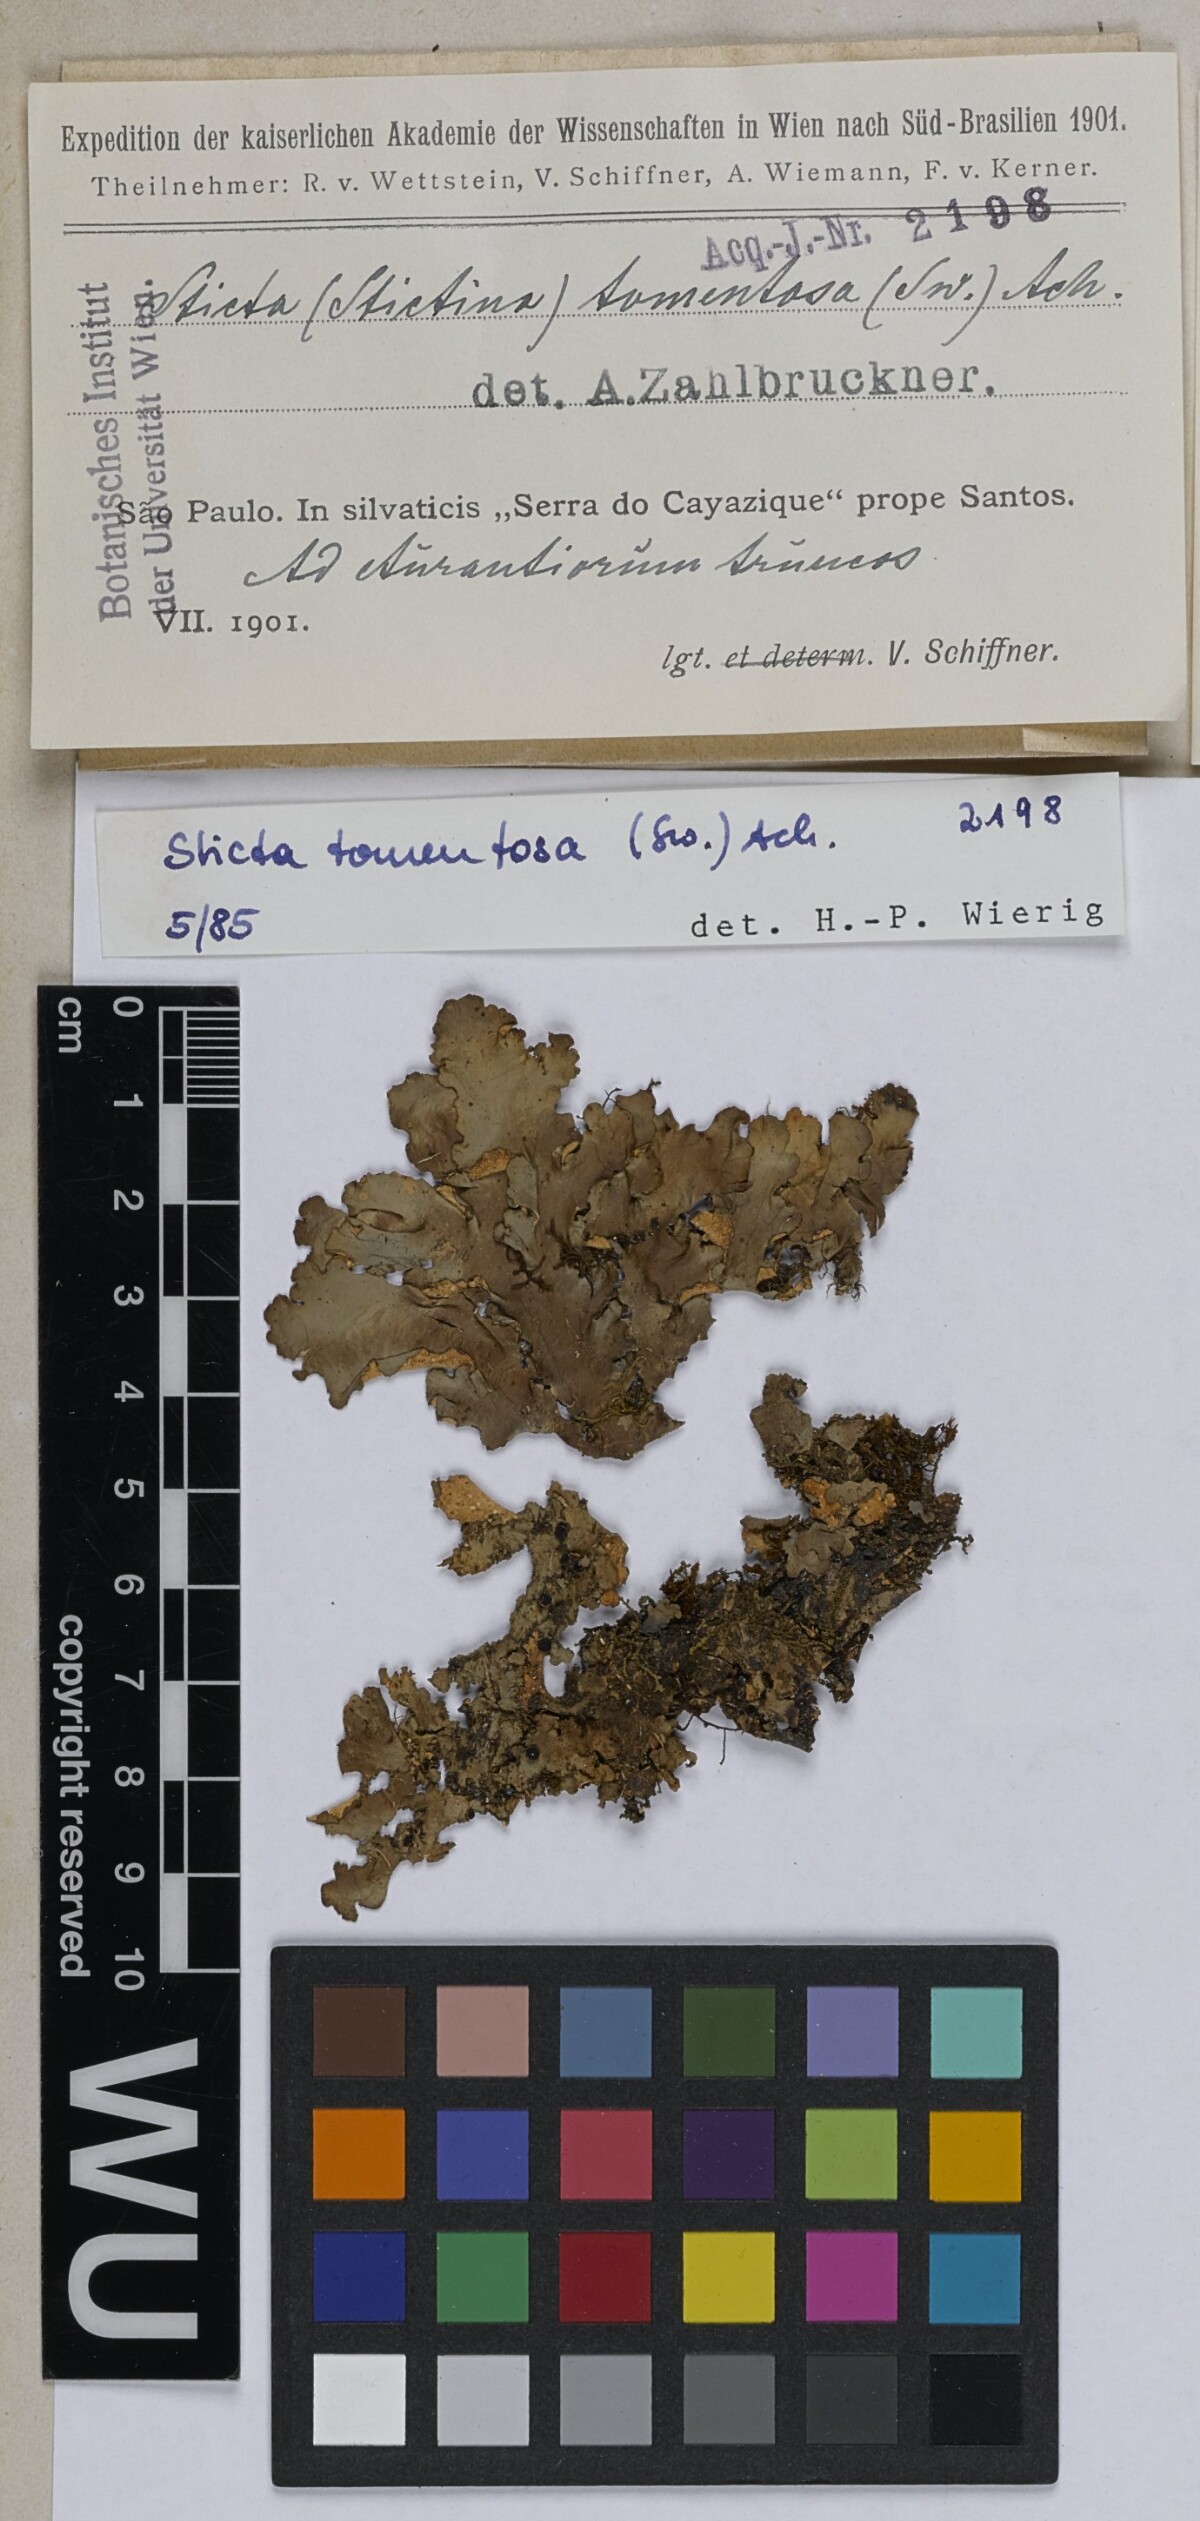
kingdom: Fungi
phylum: Ascomycota
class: Lecanoromycetes
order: Peltigerales
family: Lobariaceae
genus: Sticta
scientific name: Sticta tomentosa
